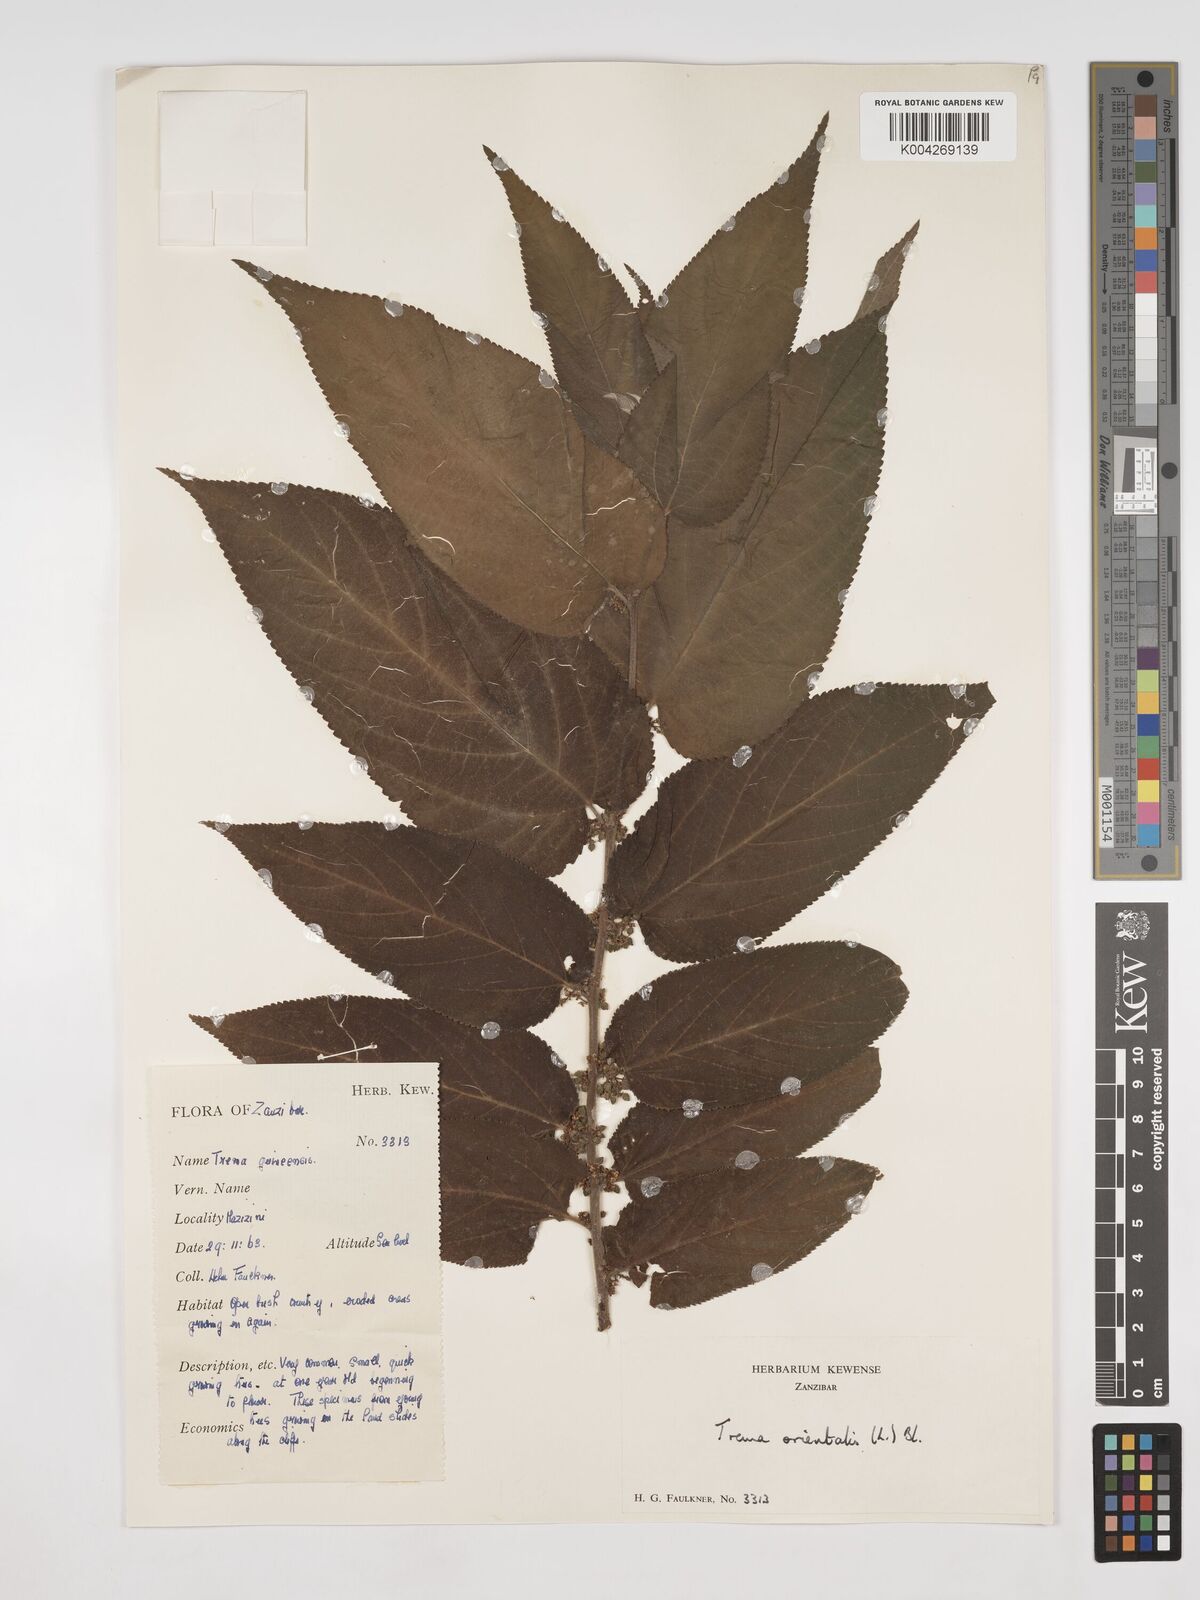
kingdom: Plantae
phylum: Tracheophyta
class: Magnoliopsida
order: Rosales
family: Cannabaceae
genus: Trema
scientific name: Trema orientale
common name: Indian charcoal tree
